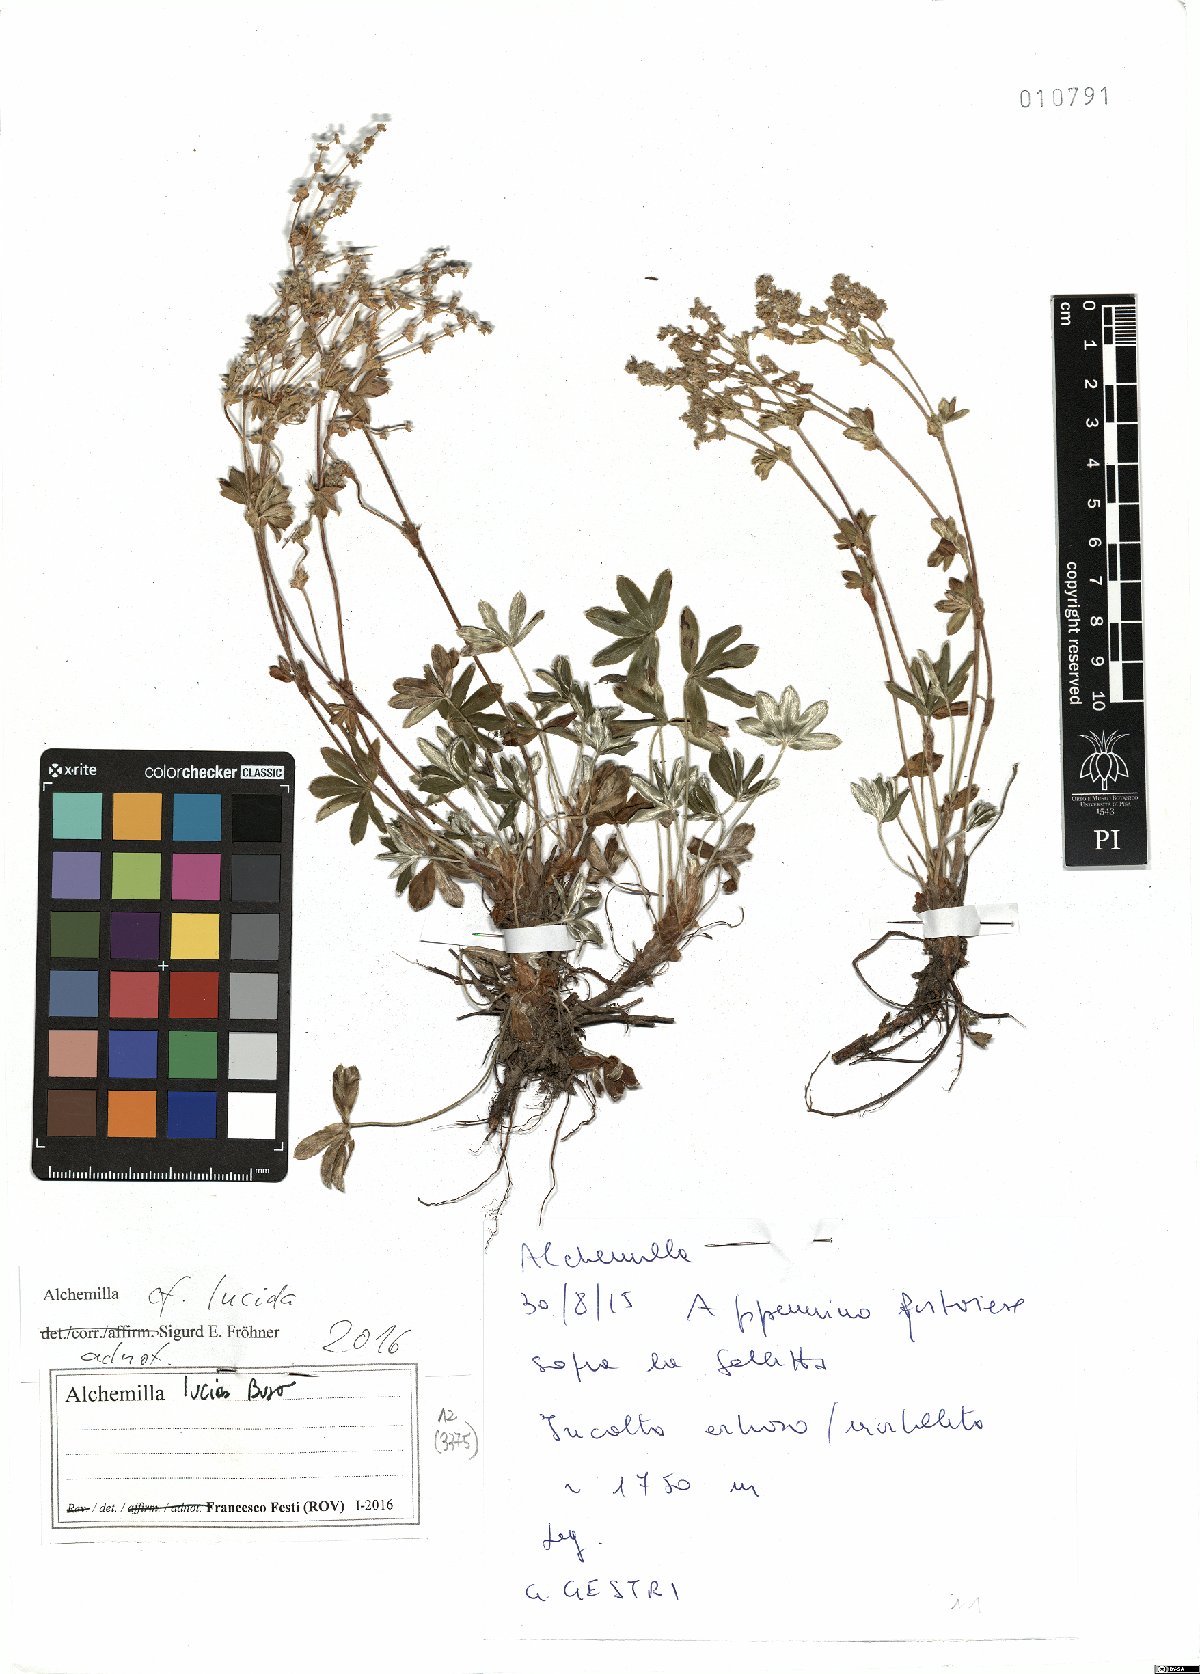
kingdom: Plantae
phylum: Tracheophyta
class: Magnoliopsida
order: Rosales
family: Rosaceae
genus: Alchemilla
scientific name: Alchemilla lucida
